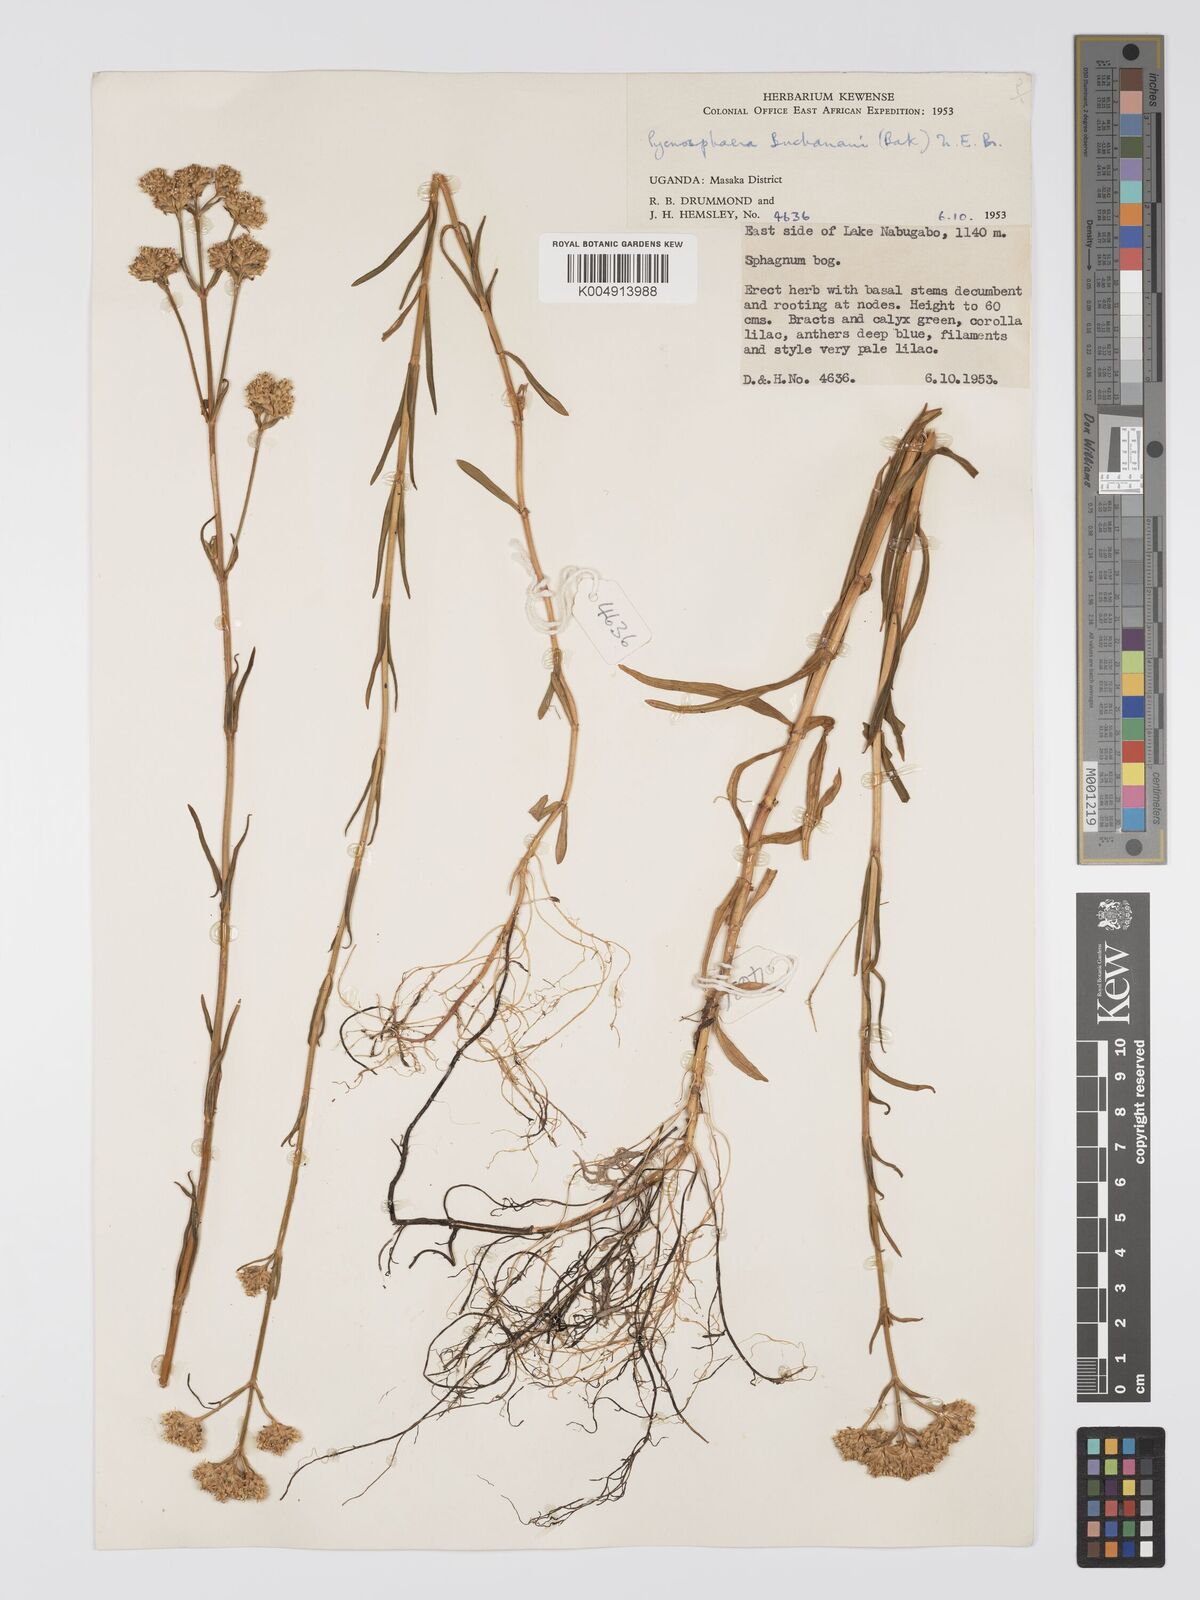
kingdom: Plantae
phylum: Tracheophyta
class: Magnoliopsida
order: Gentianales
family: Gentianaceae
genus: Pycnosphaera
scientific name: Pycnosphaera buchananii
